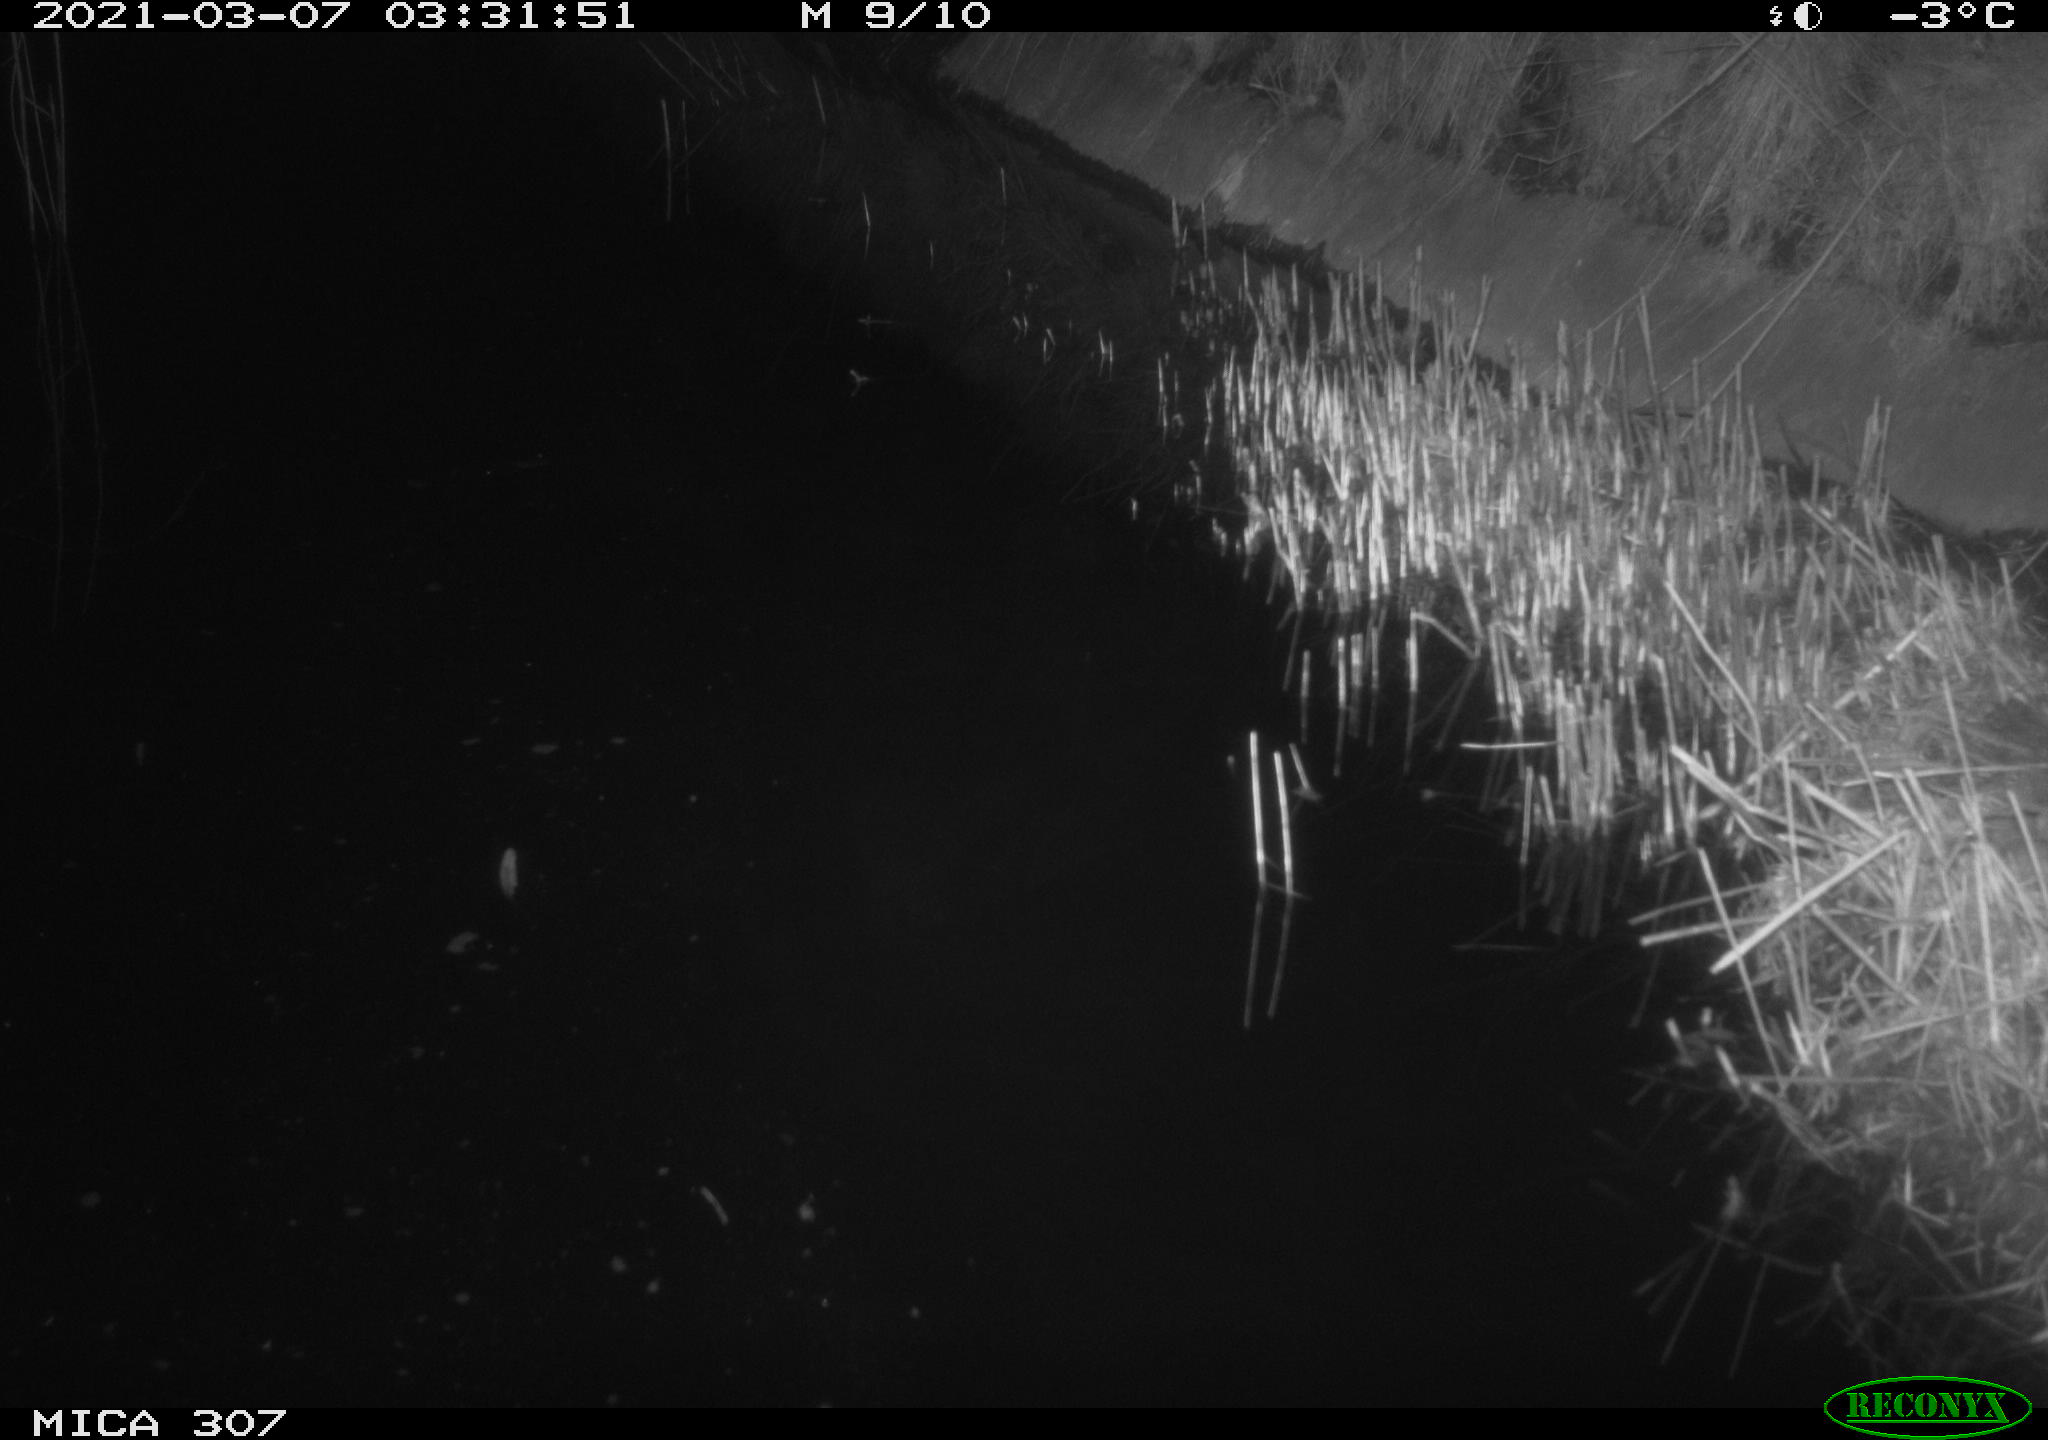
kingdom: Animalia
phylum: Chordata
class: Mammalia
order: Rodentia
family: Muridae
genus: Rattus
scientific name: Rattus norvegicus
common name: Brown rat
